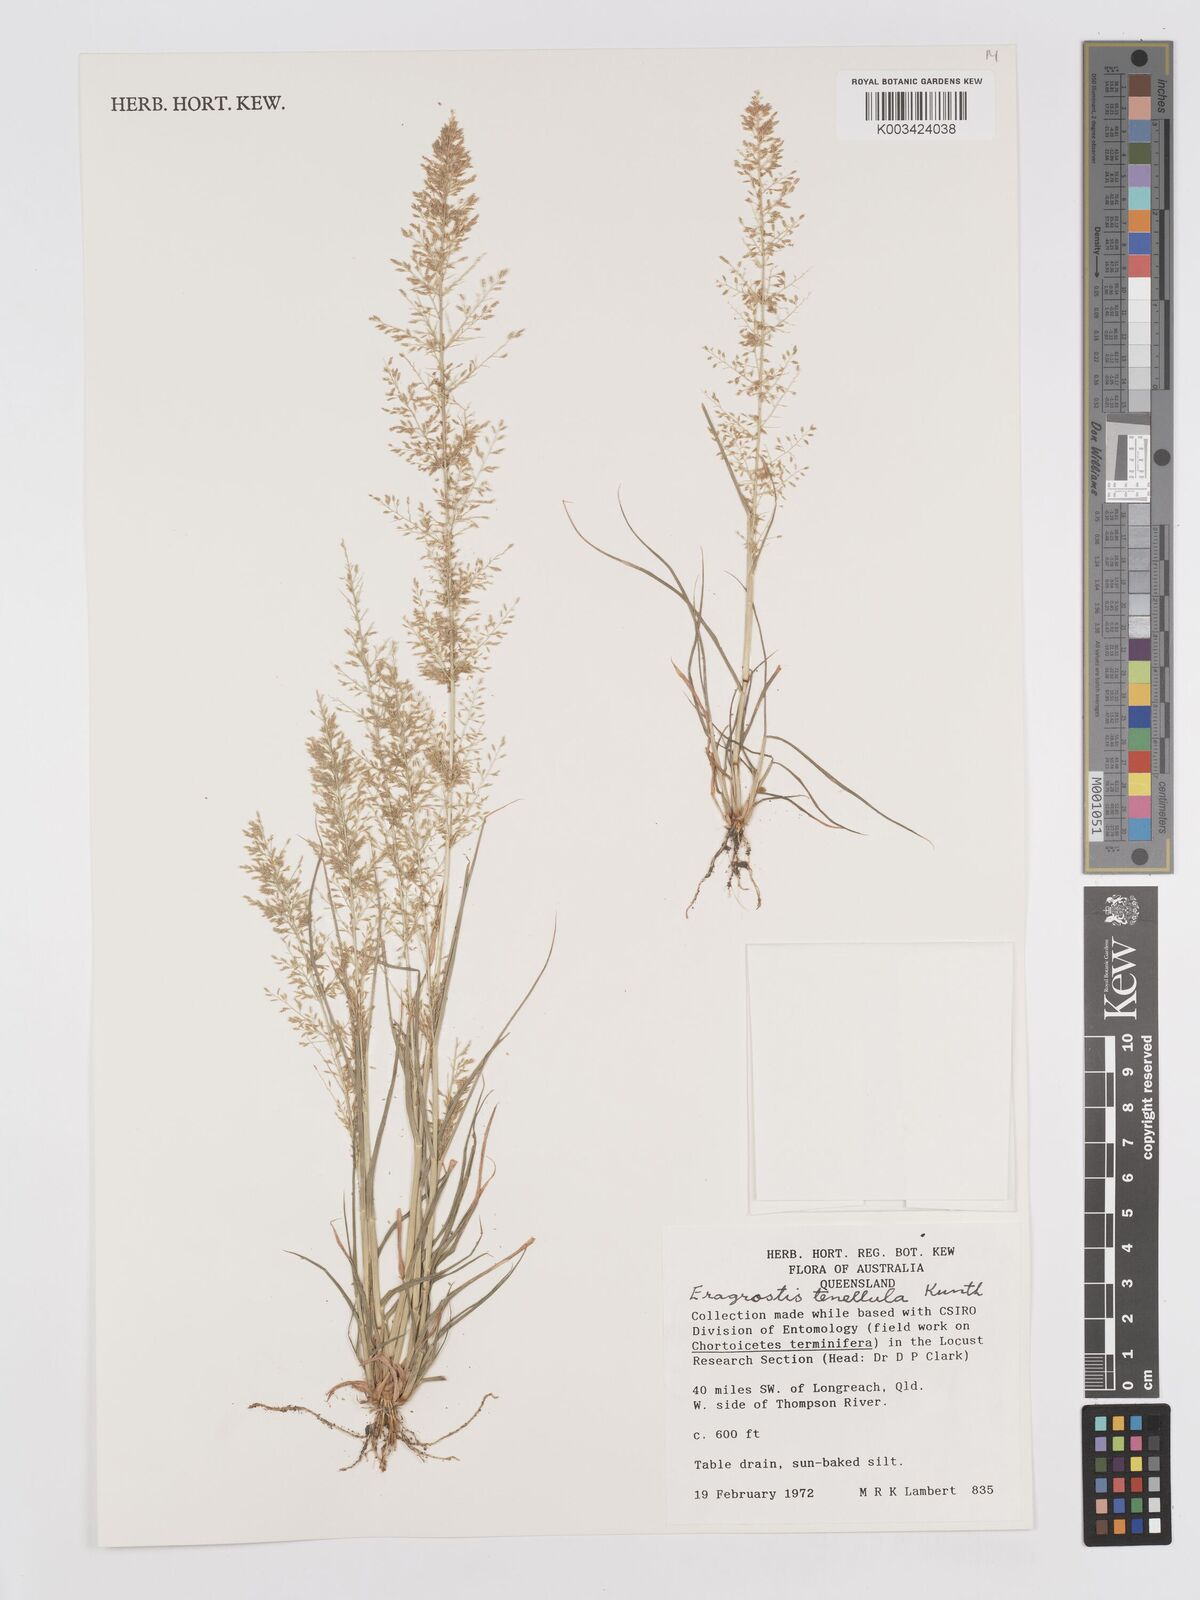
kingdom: Plantae
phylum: Tracheophyta
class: Liliopsida
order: Poales
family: Poaceae
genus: Eragrostis
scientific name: Eragrostis tenellula
